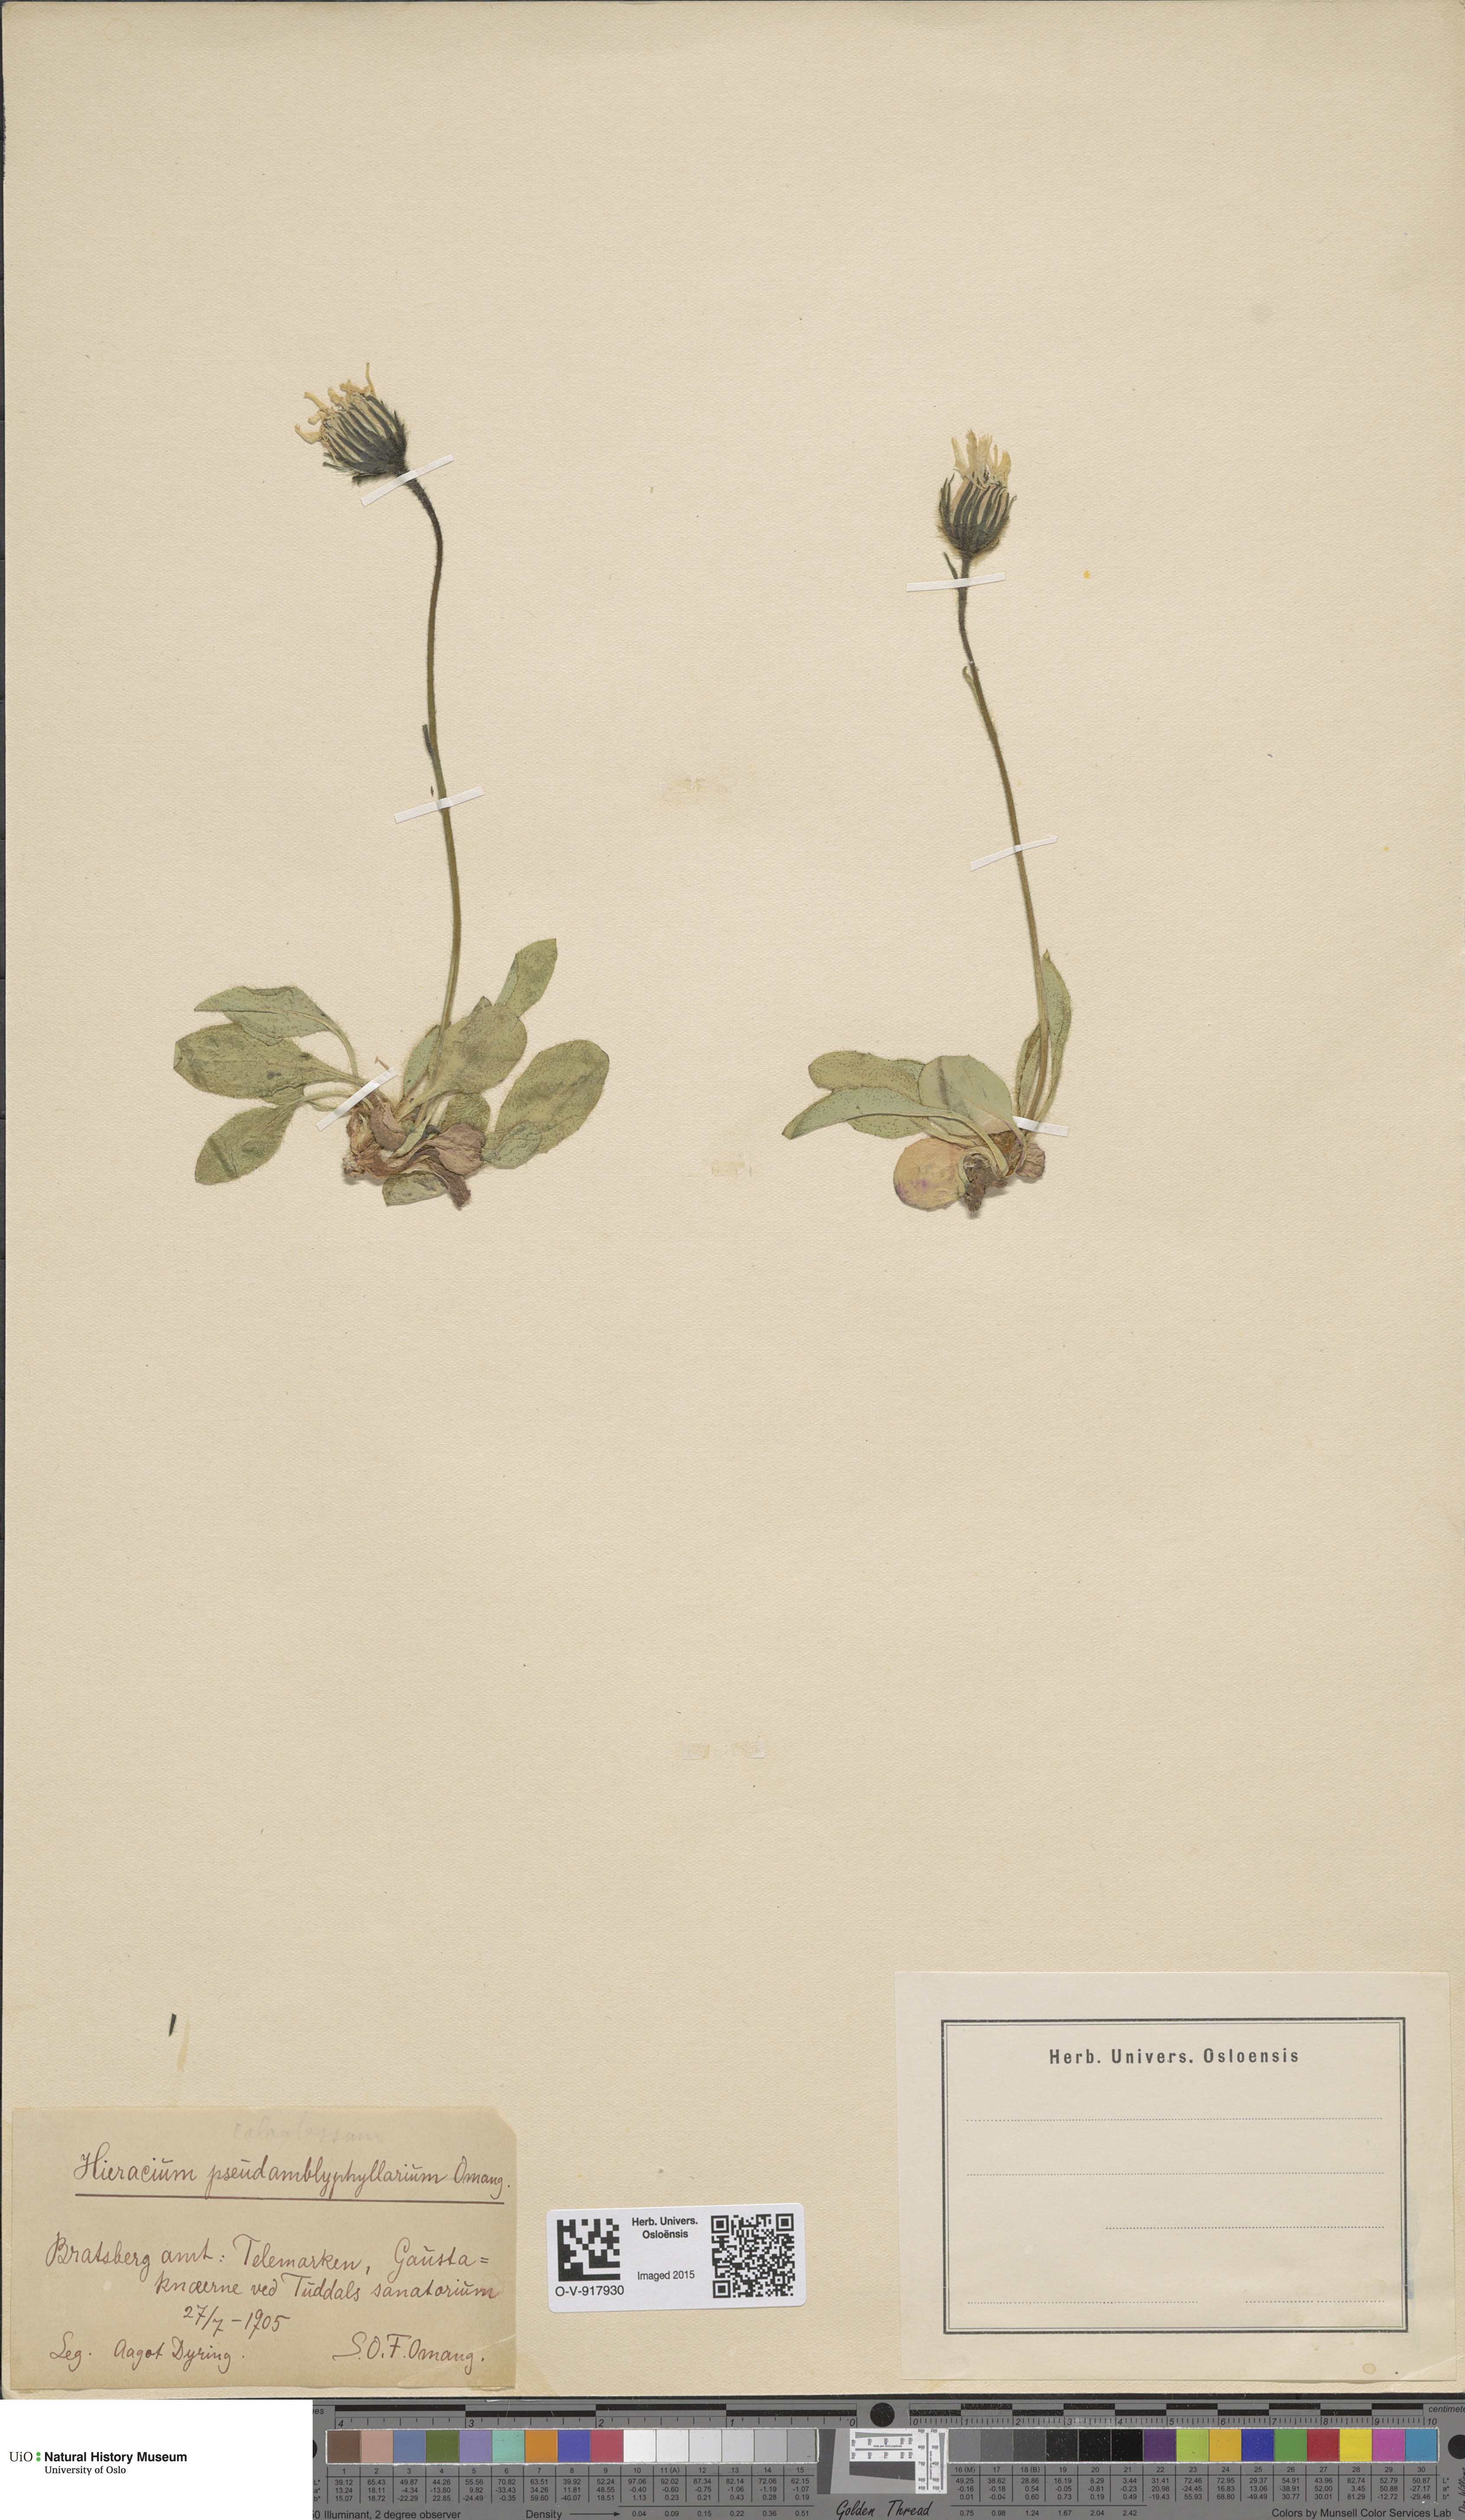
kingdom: Plantae
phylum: Tracheophyta
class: Magnoliopsida
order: Asterales
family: Asteraceae
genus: Hieracium
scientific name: Hieracium
